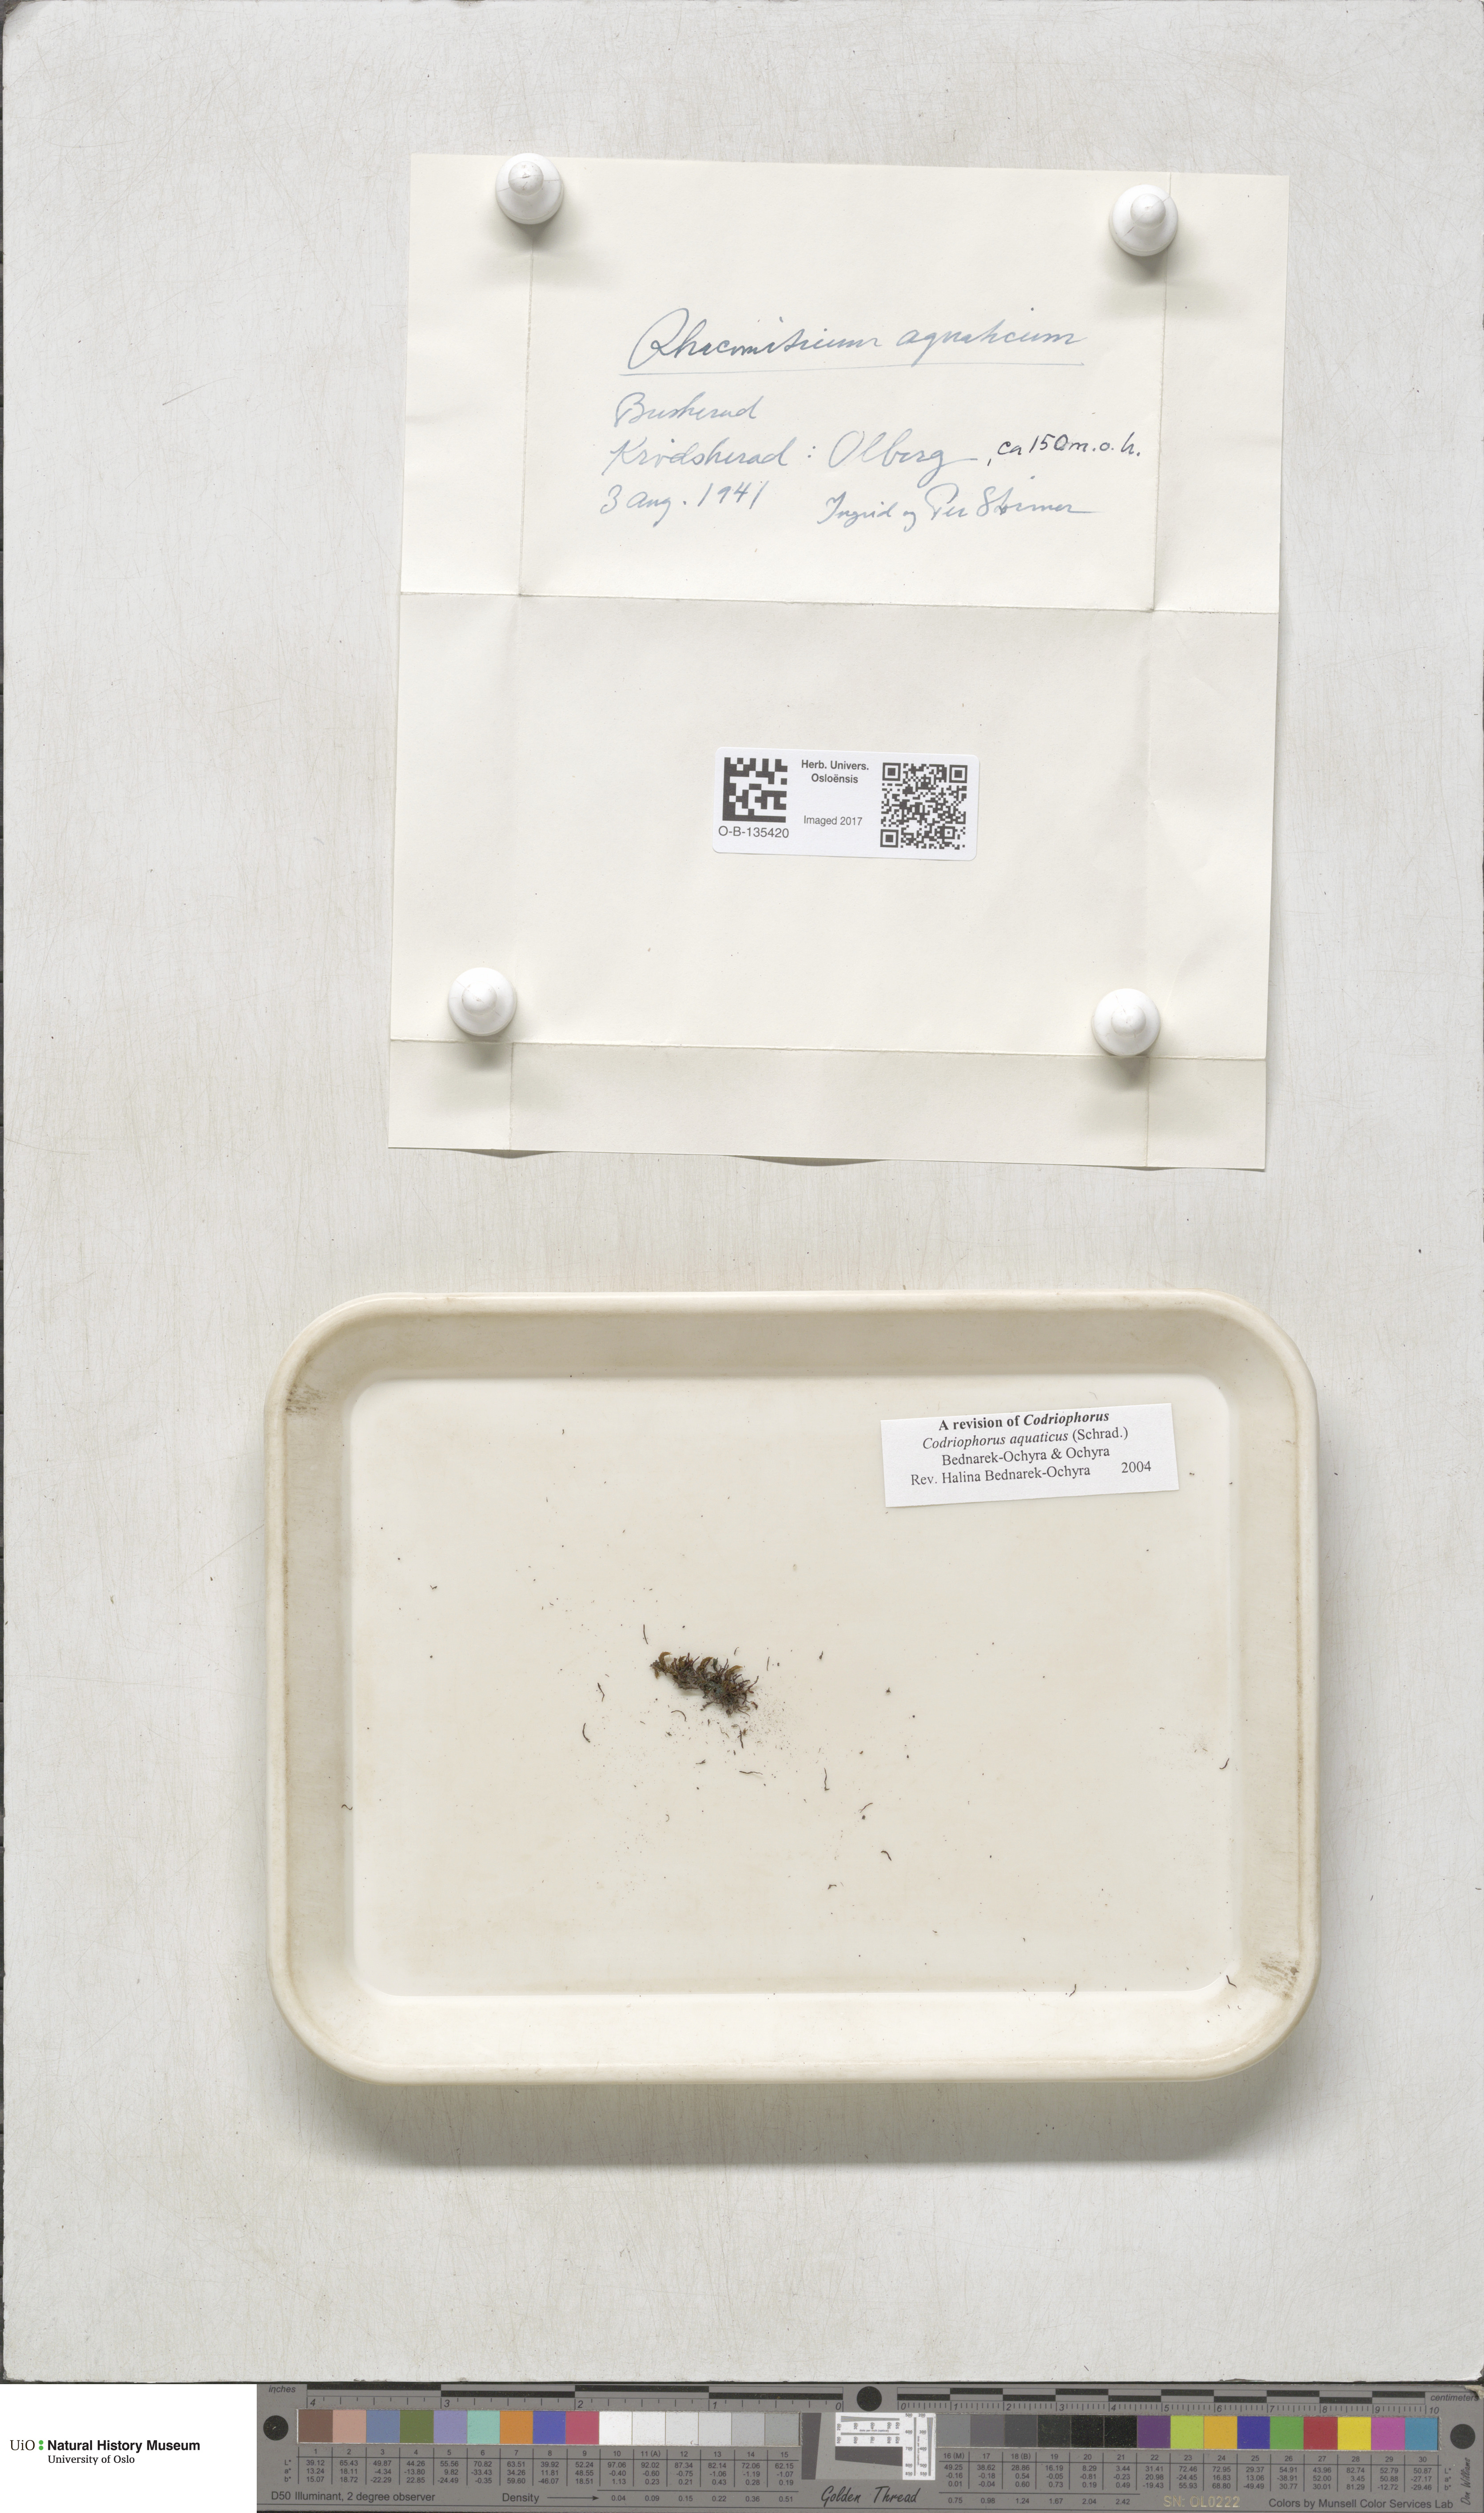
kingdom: Plantae
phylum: Bryophyta
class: Bryopsida
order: Grimmiales
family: Grimmiaceae
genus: Codriophorus
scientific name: Codriophorus aquaticus
